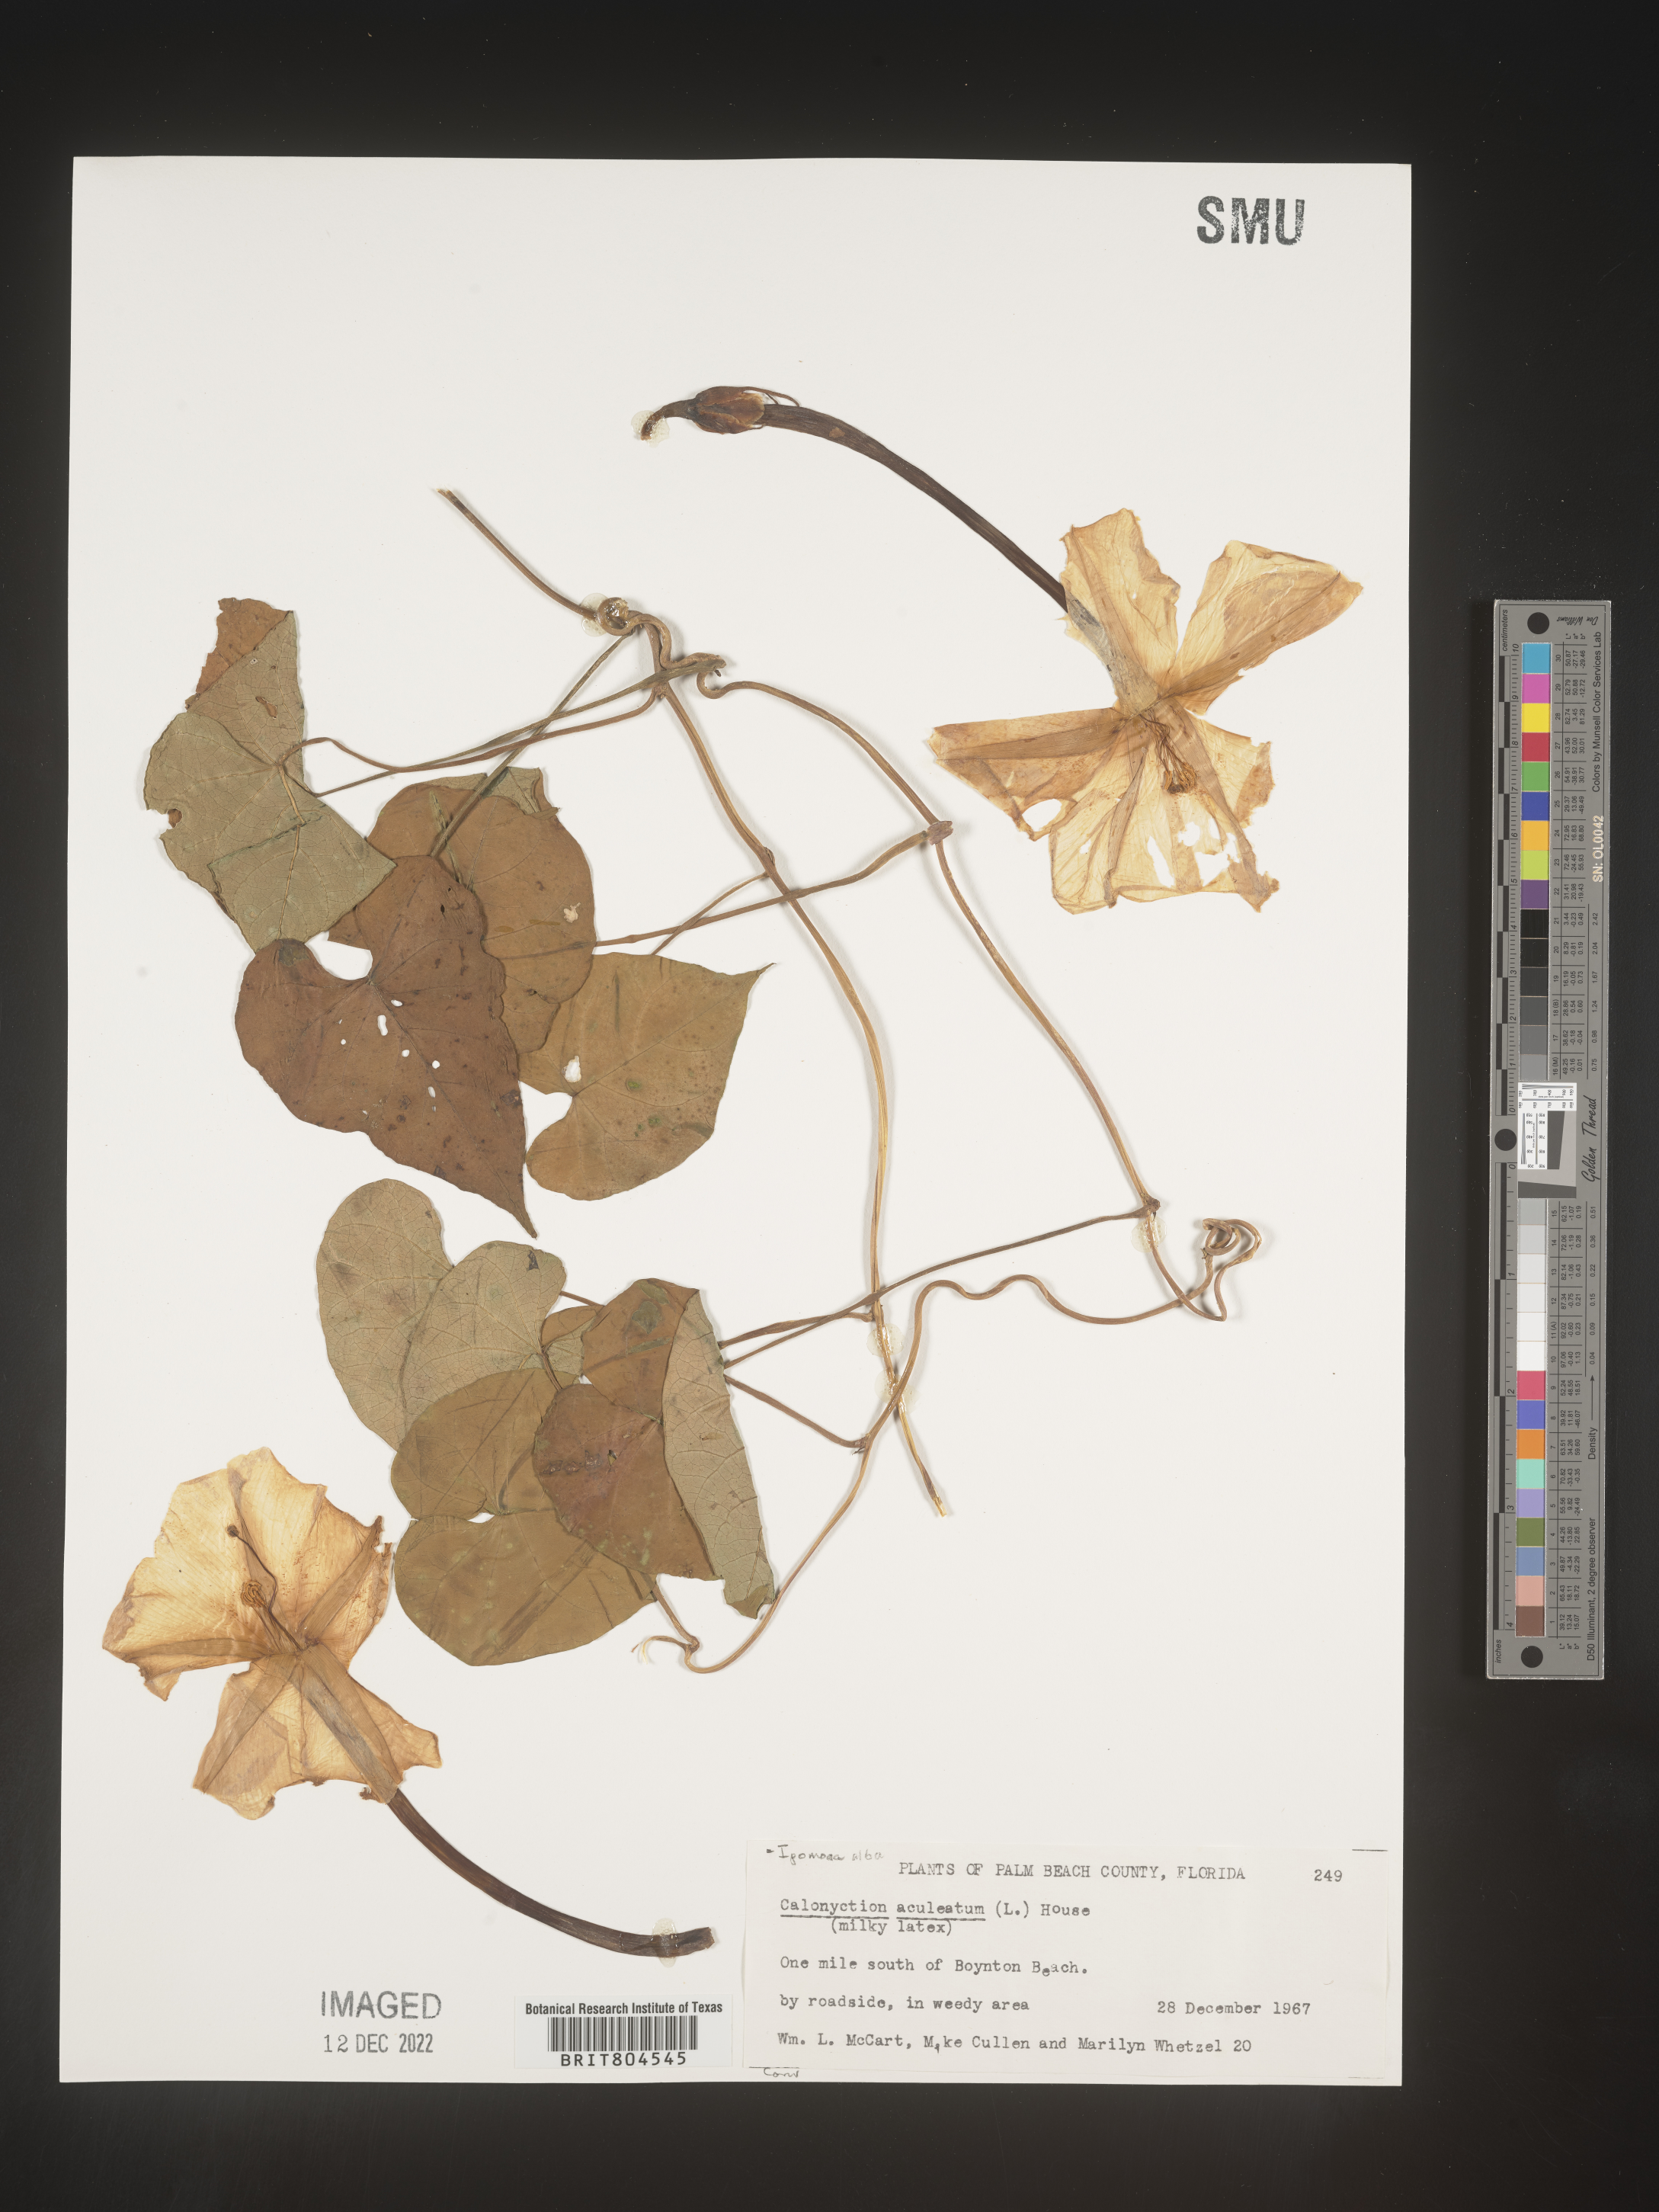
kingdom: Plantae
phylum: Tracheophyta
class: Magnoliopsida
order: Solanales
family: Convolvulaceae
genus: Ipomoea
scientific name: Ipomoea alba
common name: Moonflower
